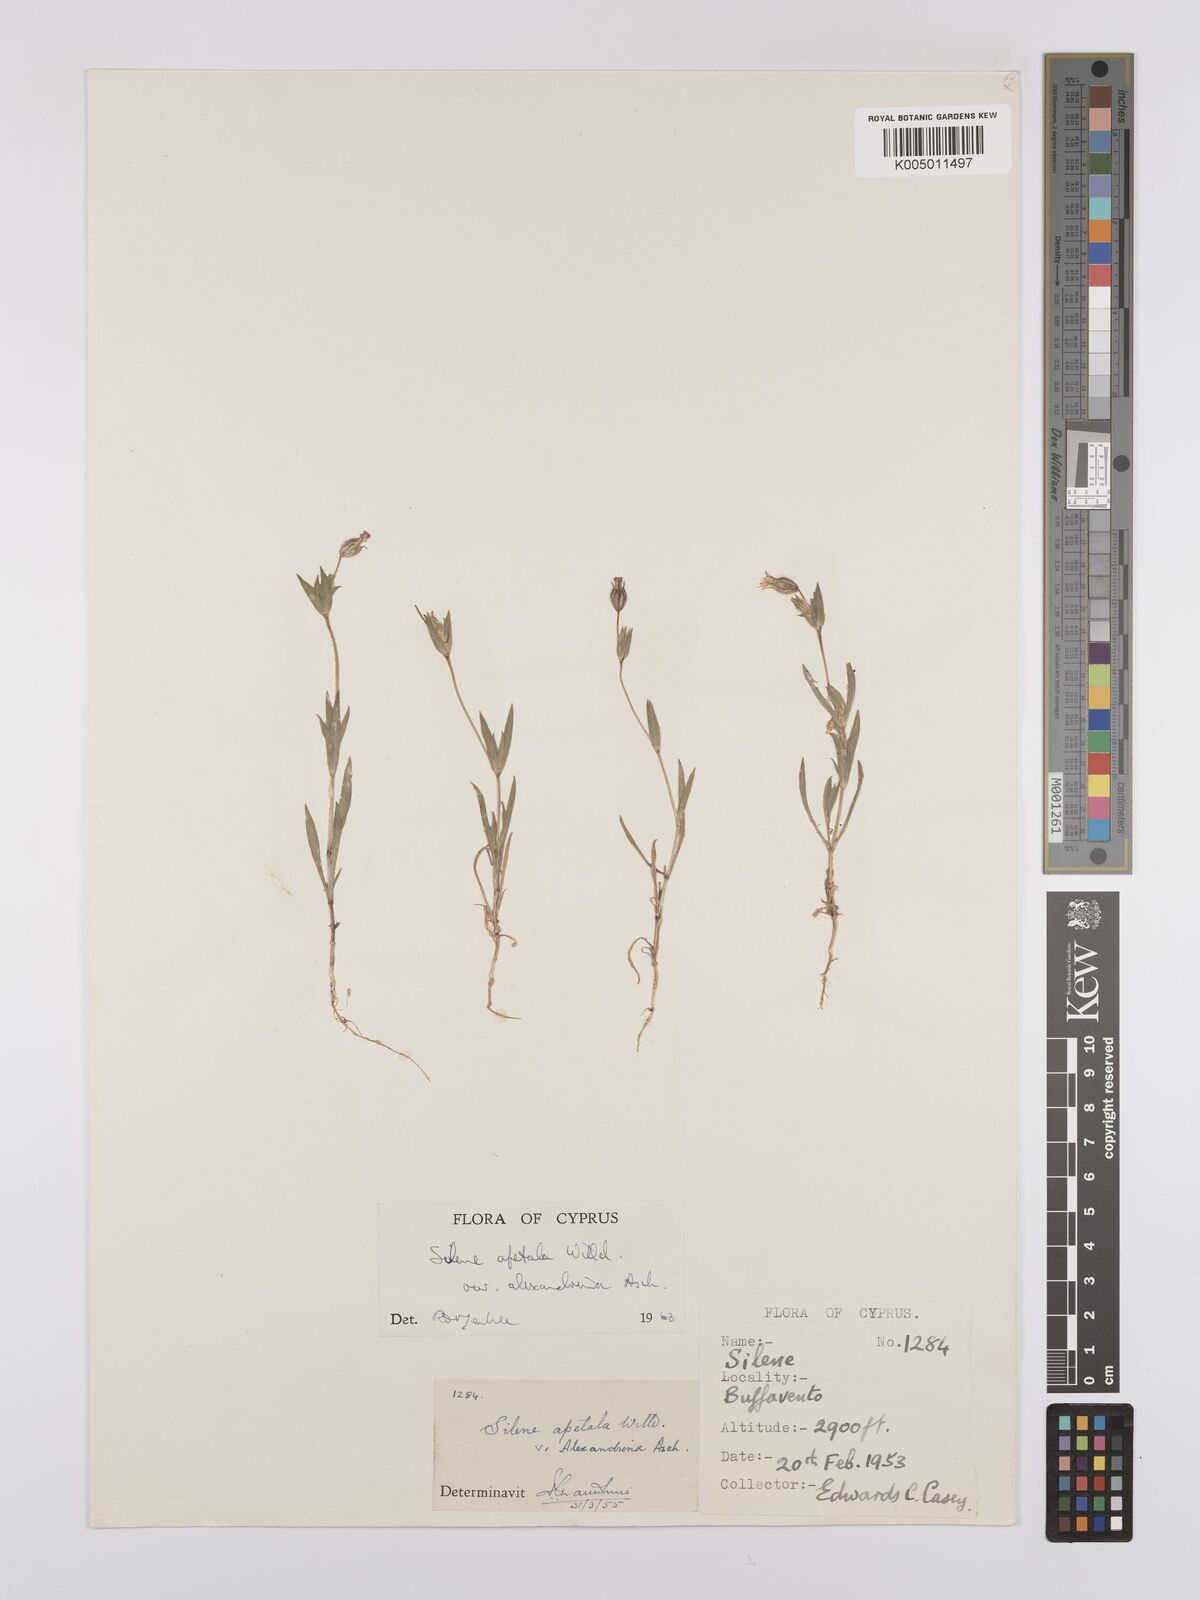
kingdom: Plantae
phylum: Tracheophyta
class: Magnoliopsida
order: Caryophyllales
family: Caryophyllaceae
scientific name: Caryophyllaceae
